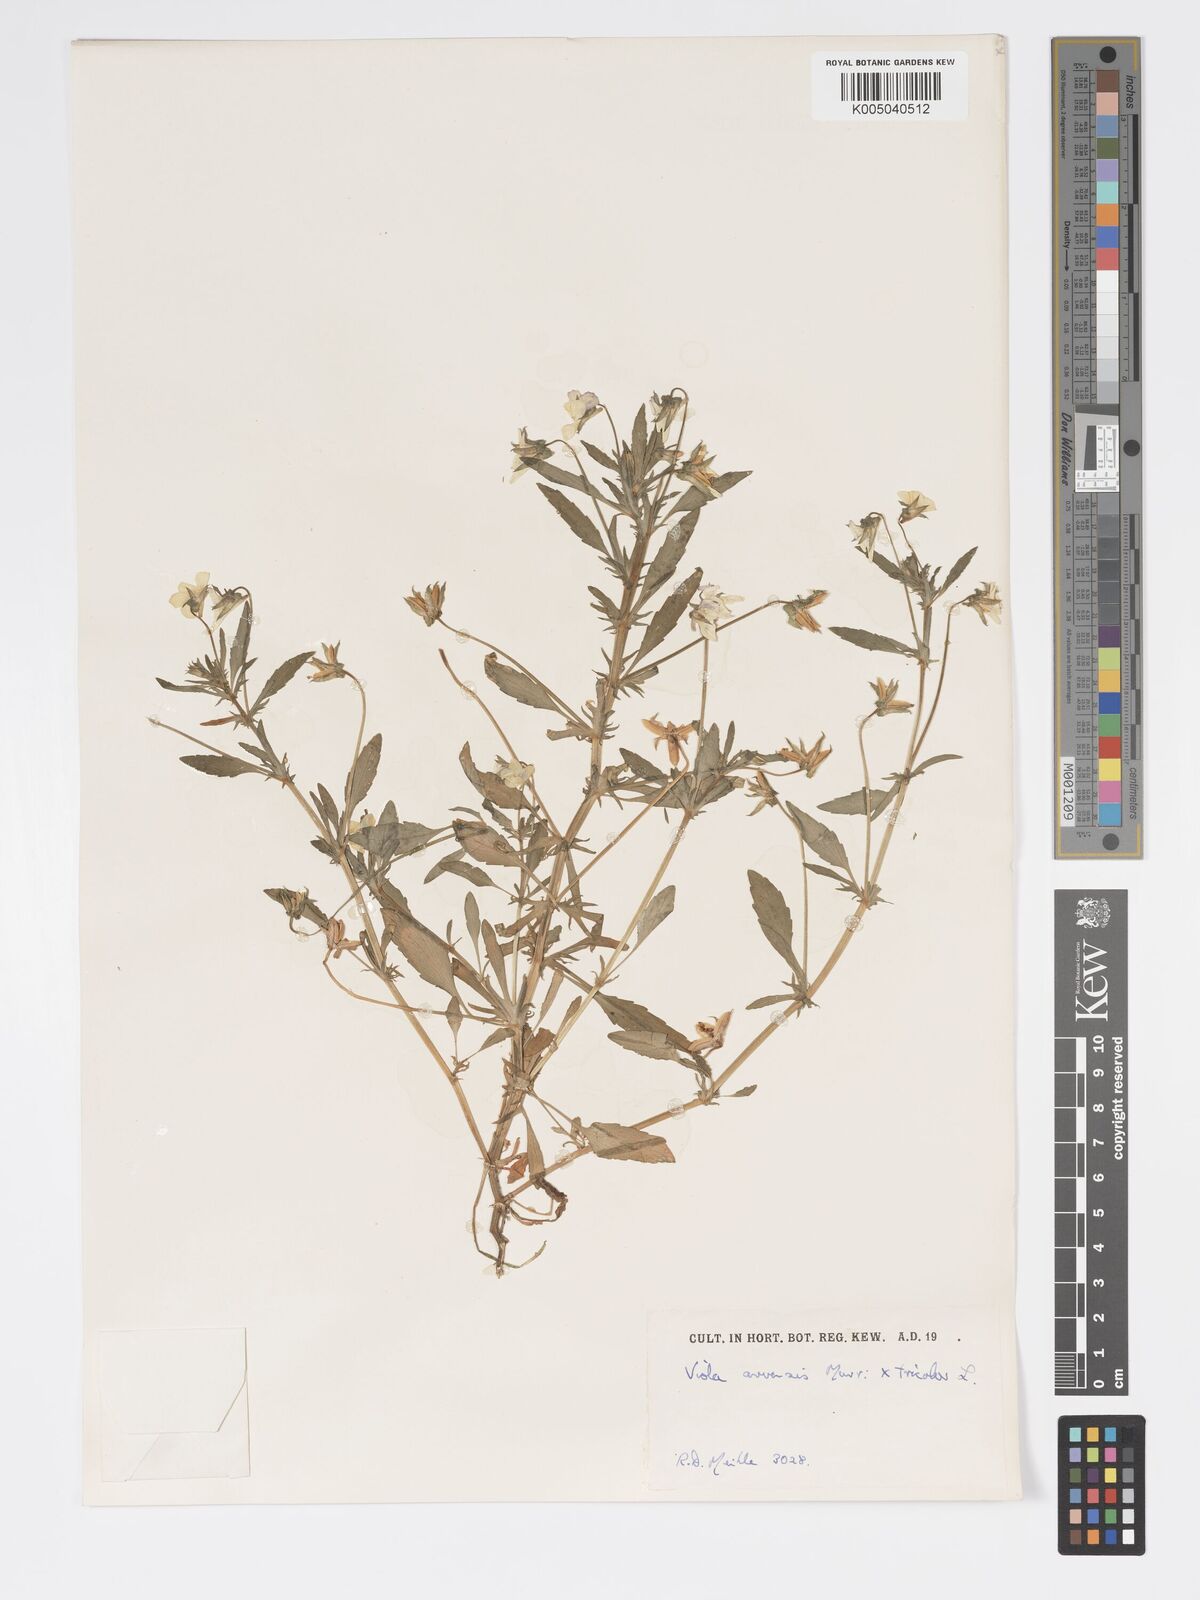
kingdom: Plantae
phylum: Tracheophyta
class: Magnoliopsida
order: Malpighiales
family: Violaceae
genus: Viola
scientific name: Viola arvensis
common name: Field pansy
